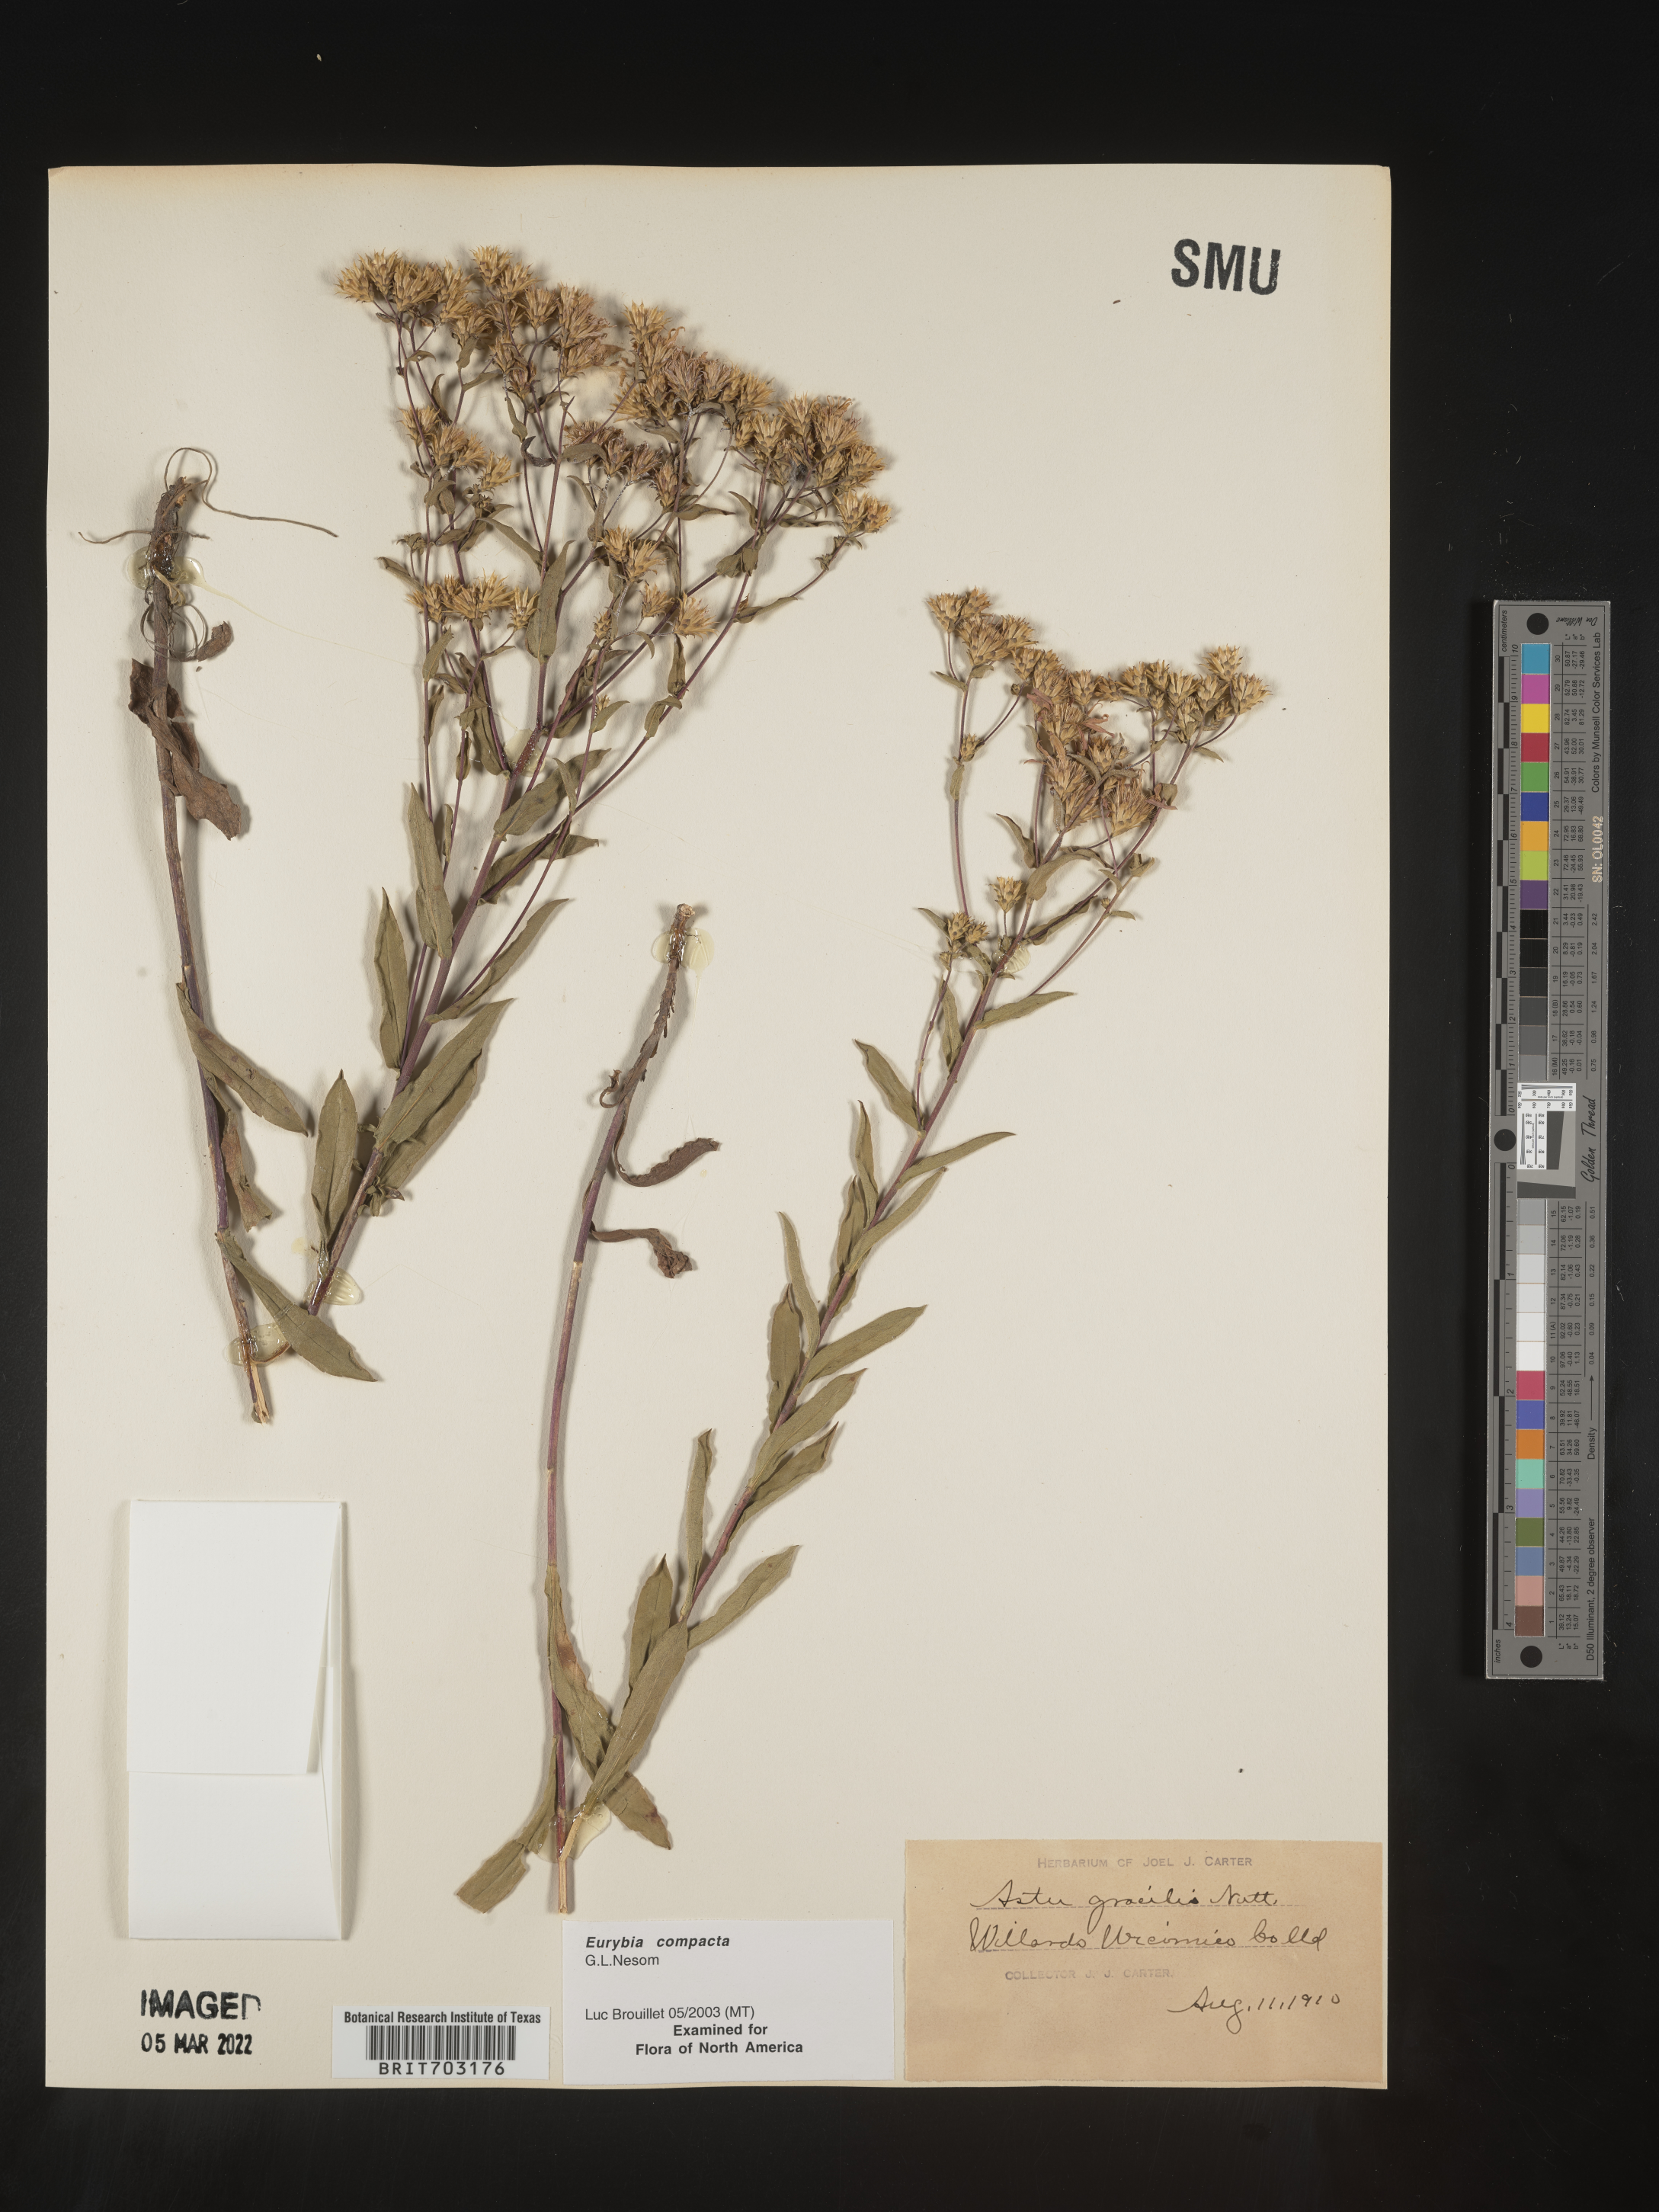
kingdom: Plantae
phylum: Tracheophyta
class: Magnoliopsida
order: Asterales
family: Asteraceae
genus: Eurybia
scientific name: Eurybia compacta
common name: Slender aster
